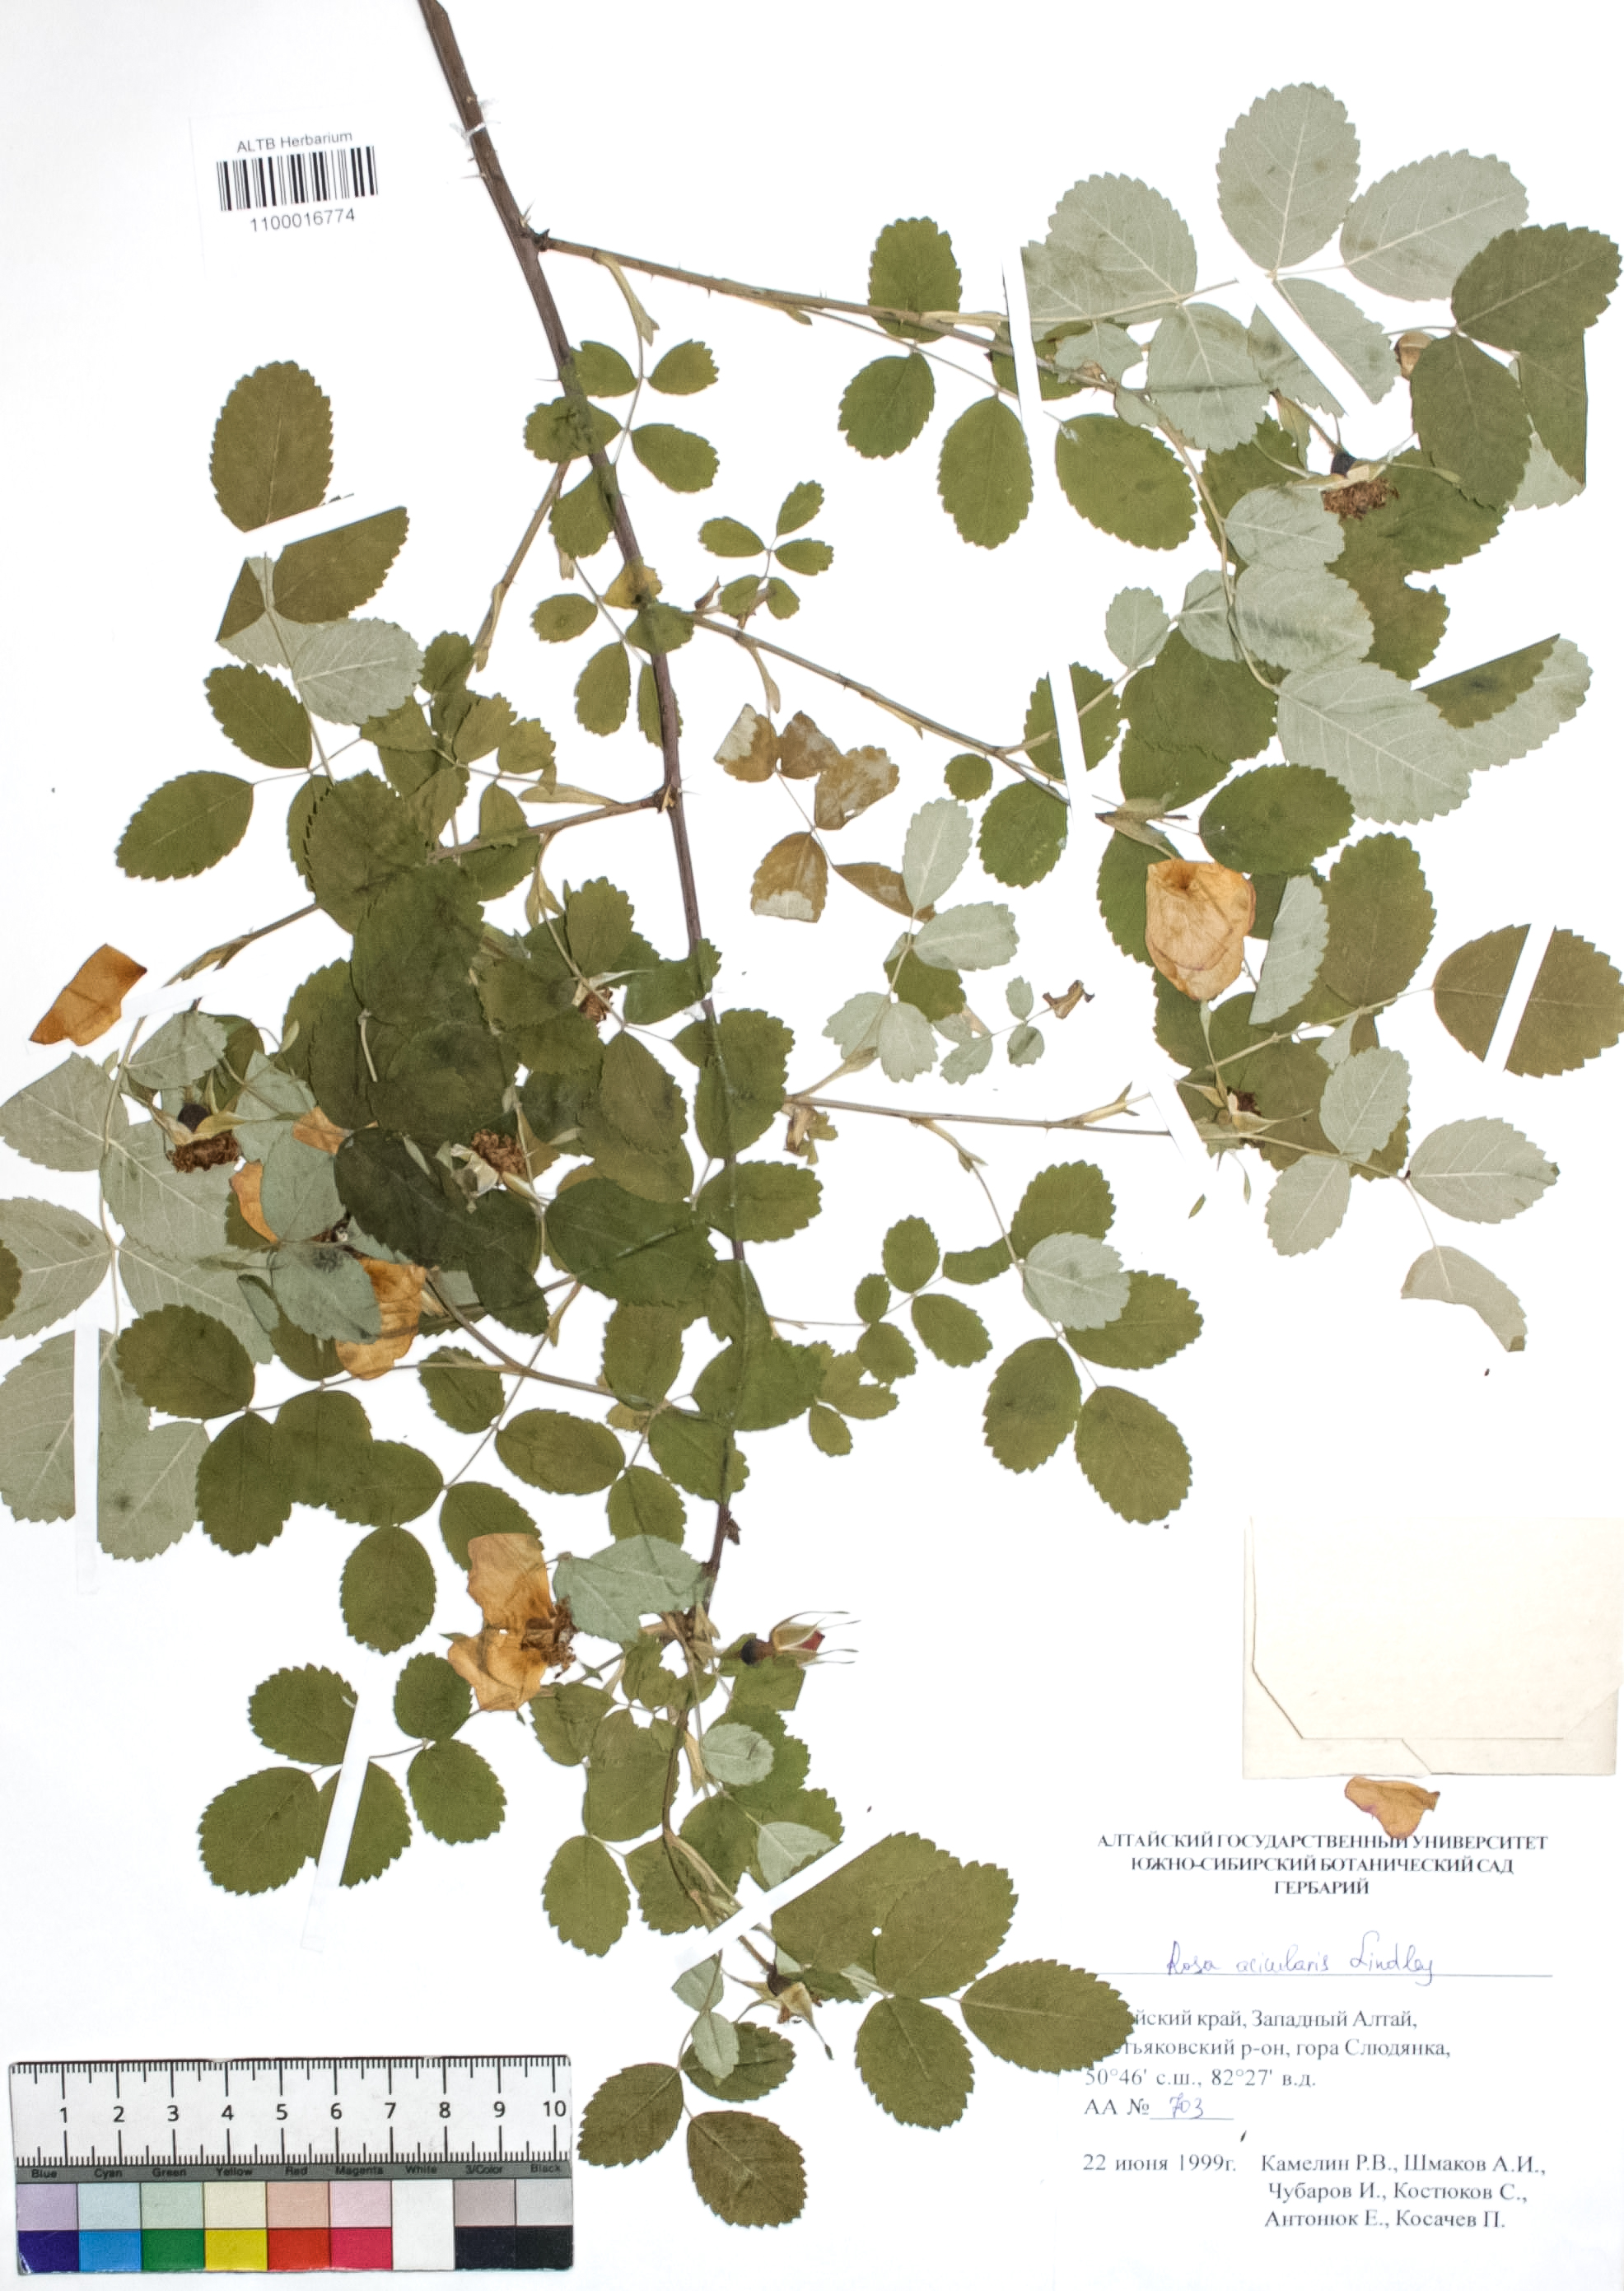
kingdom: Plantae
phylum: Tracheophyta
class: Magnoliopsida
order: Rosales
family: Rosaceae
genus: Rosa
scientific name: Rosa acicularis
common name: Prickly rose
